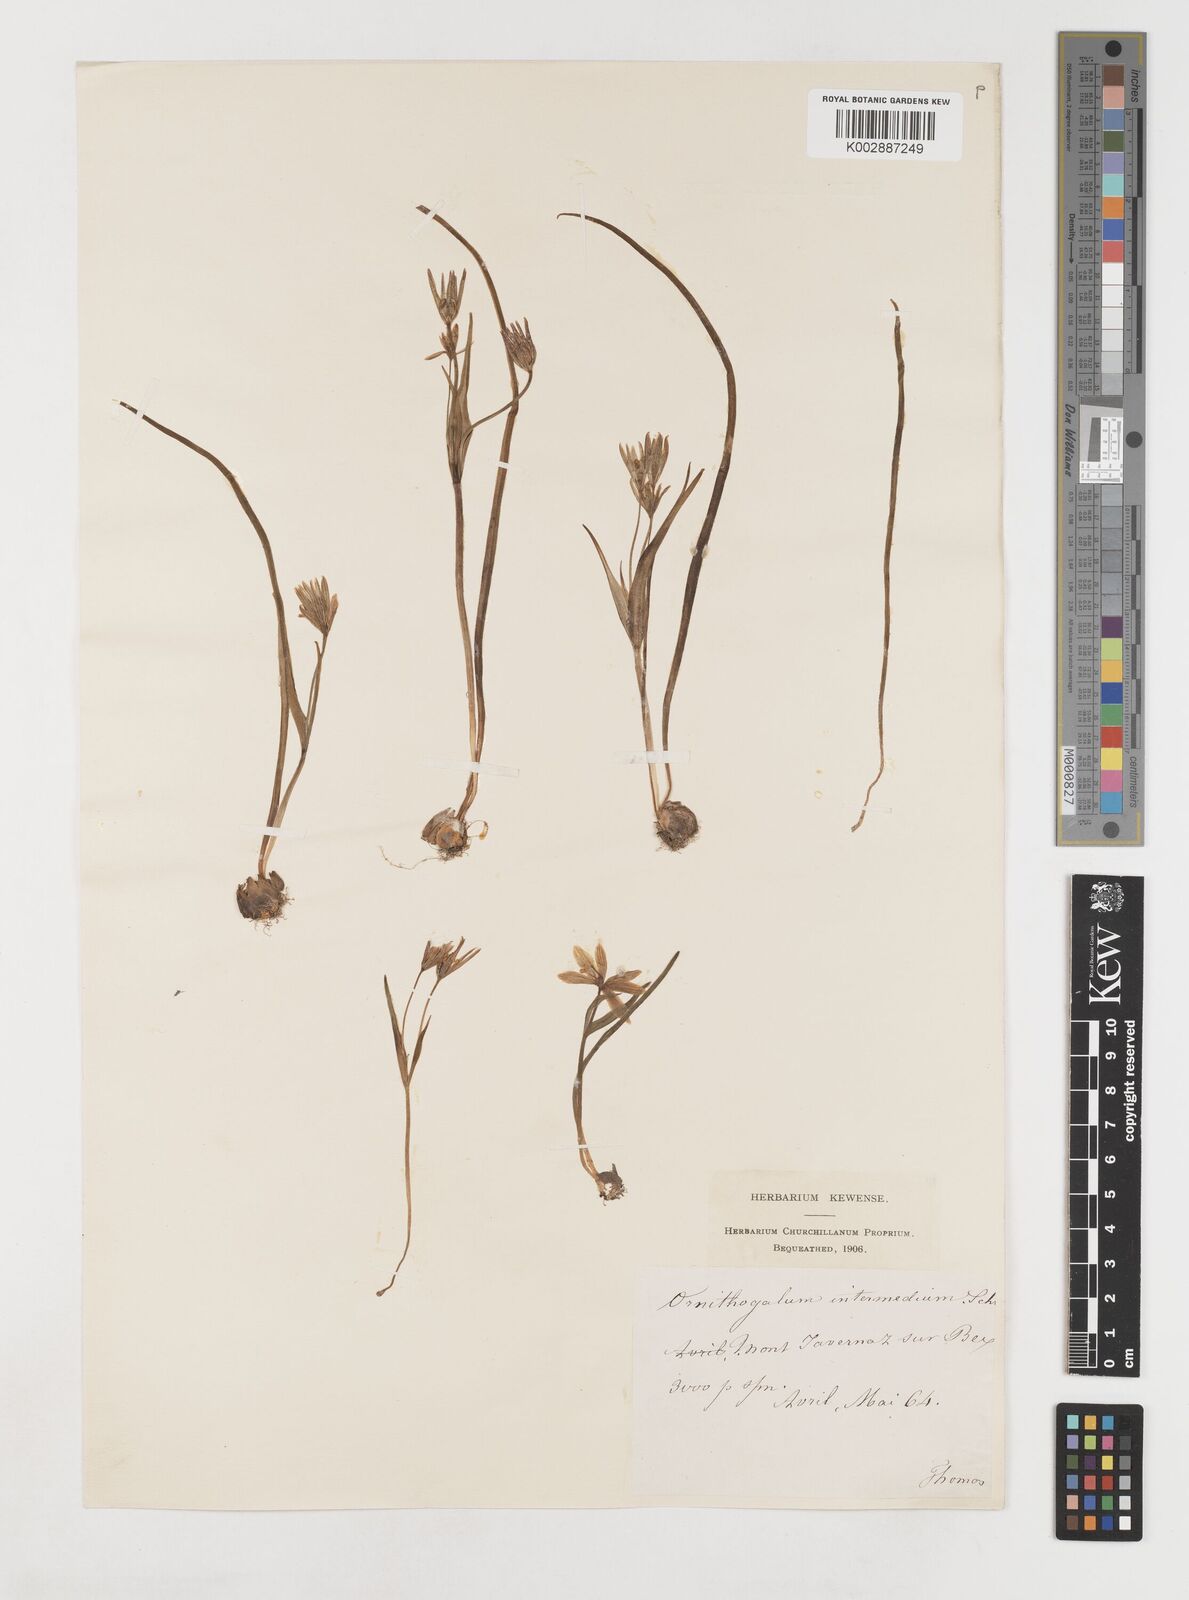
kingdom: Plantae
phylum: Tracheophyta
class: Liliopsida
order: Liliales
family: Liliaceae
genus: Gagea
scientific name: Gagea bohemica
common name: Early star-of-bethlehem
